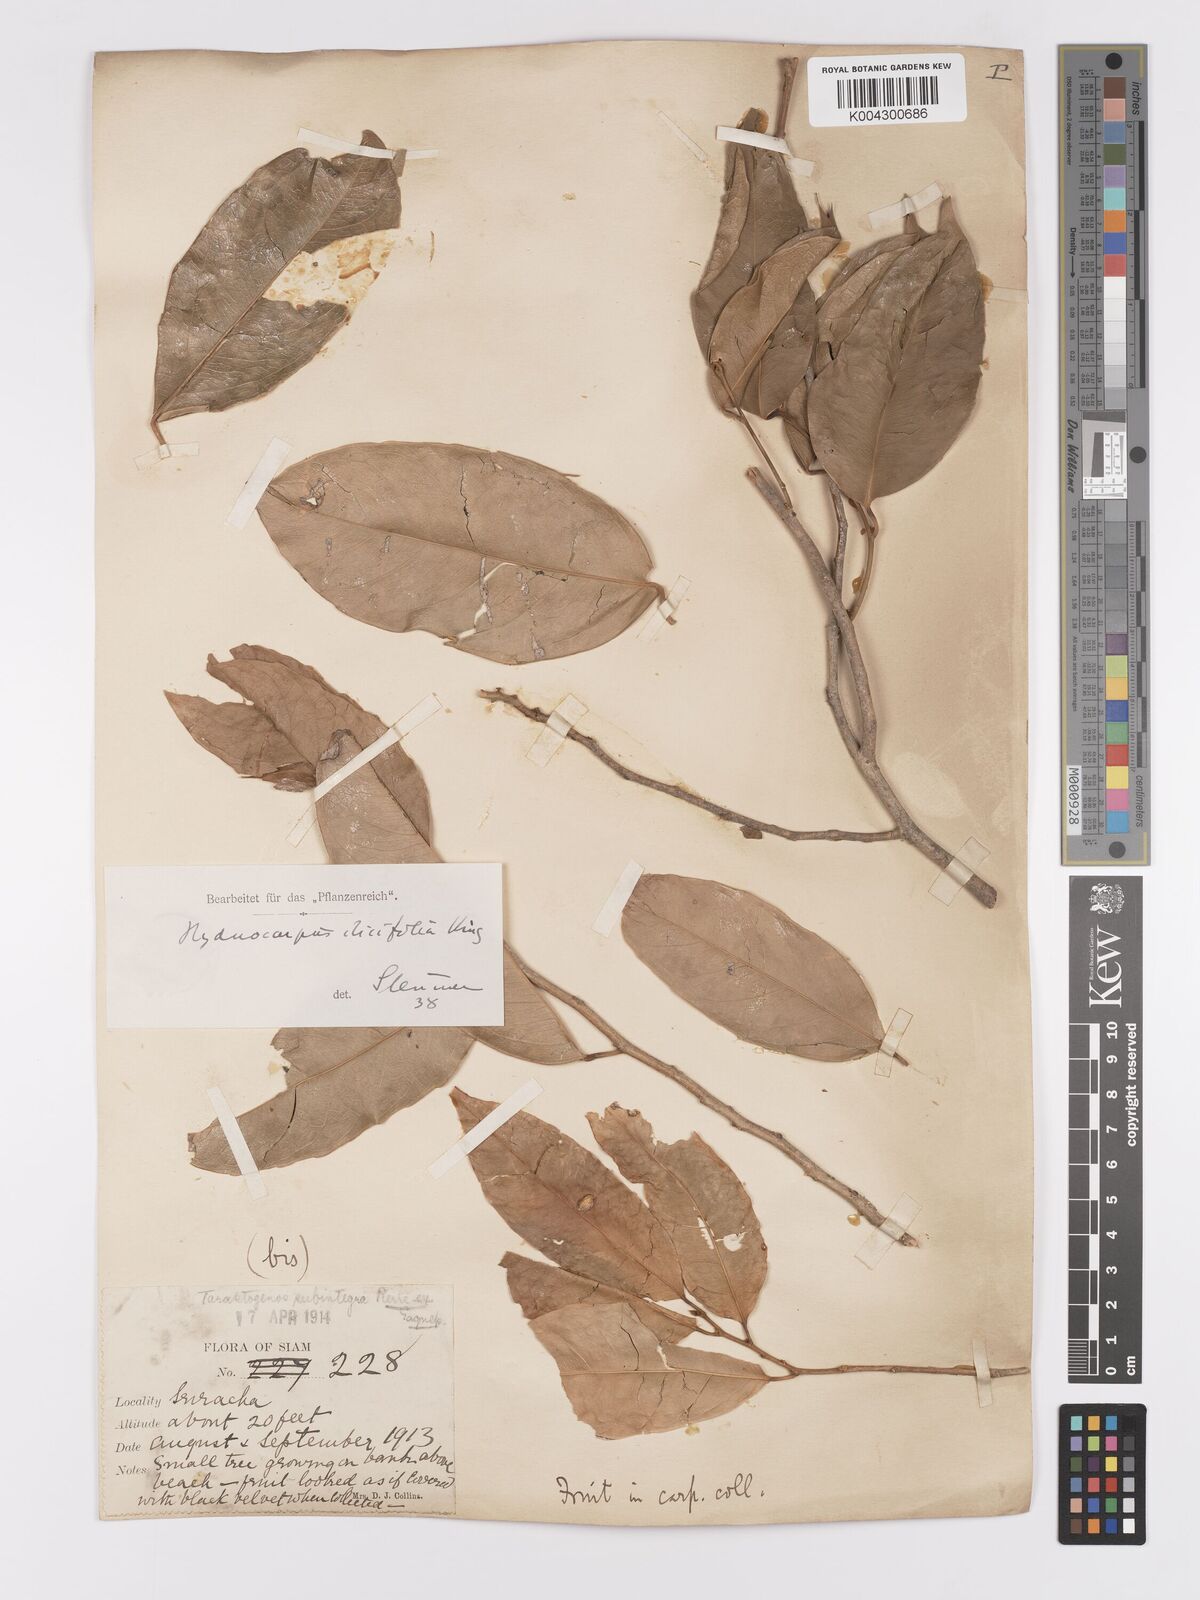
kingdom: Plantae
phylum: Tracheophyta
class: Magnoliopsida
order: Malpighiales
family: Achariaceae
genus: Hydnocarpus
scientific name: Hydnocarpus ilicifolius
